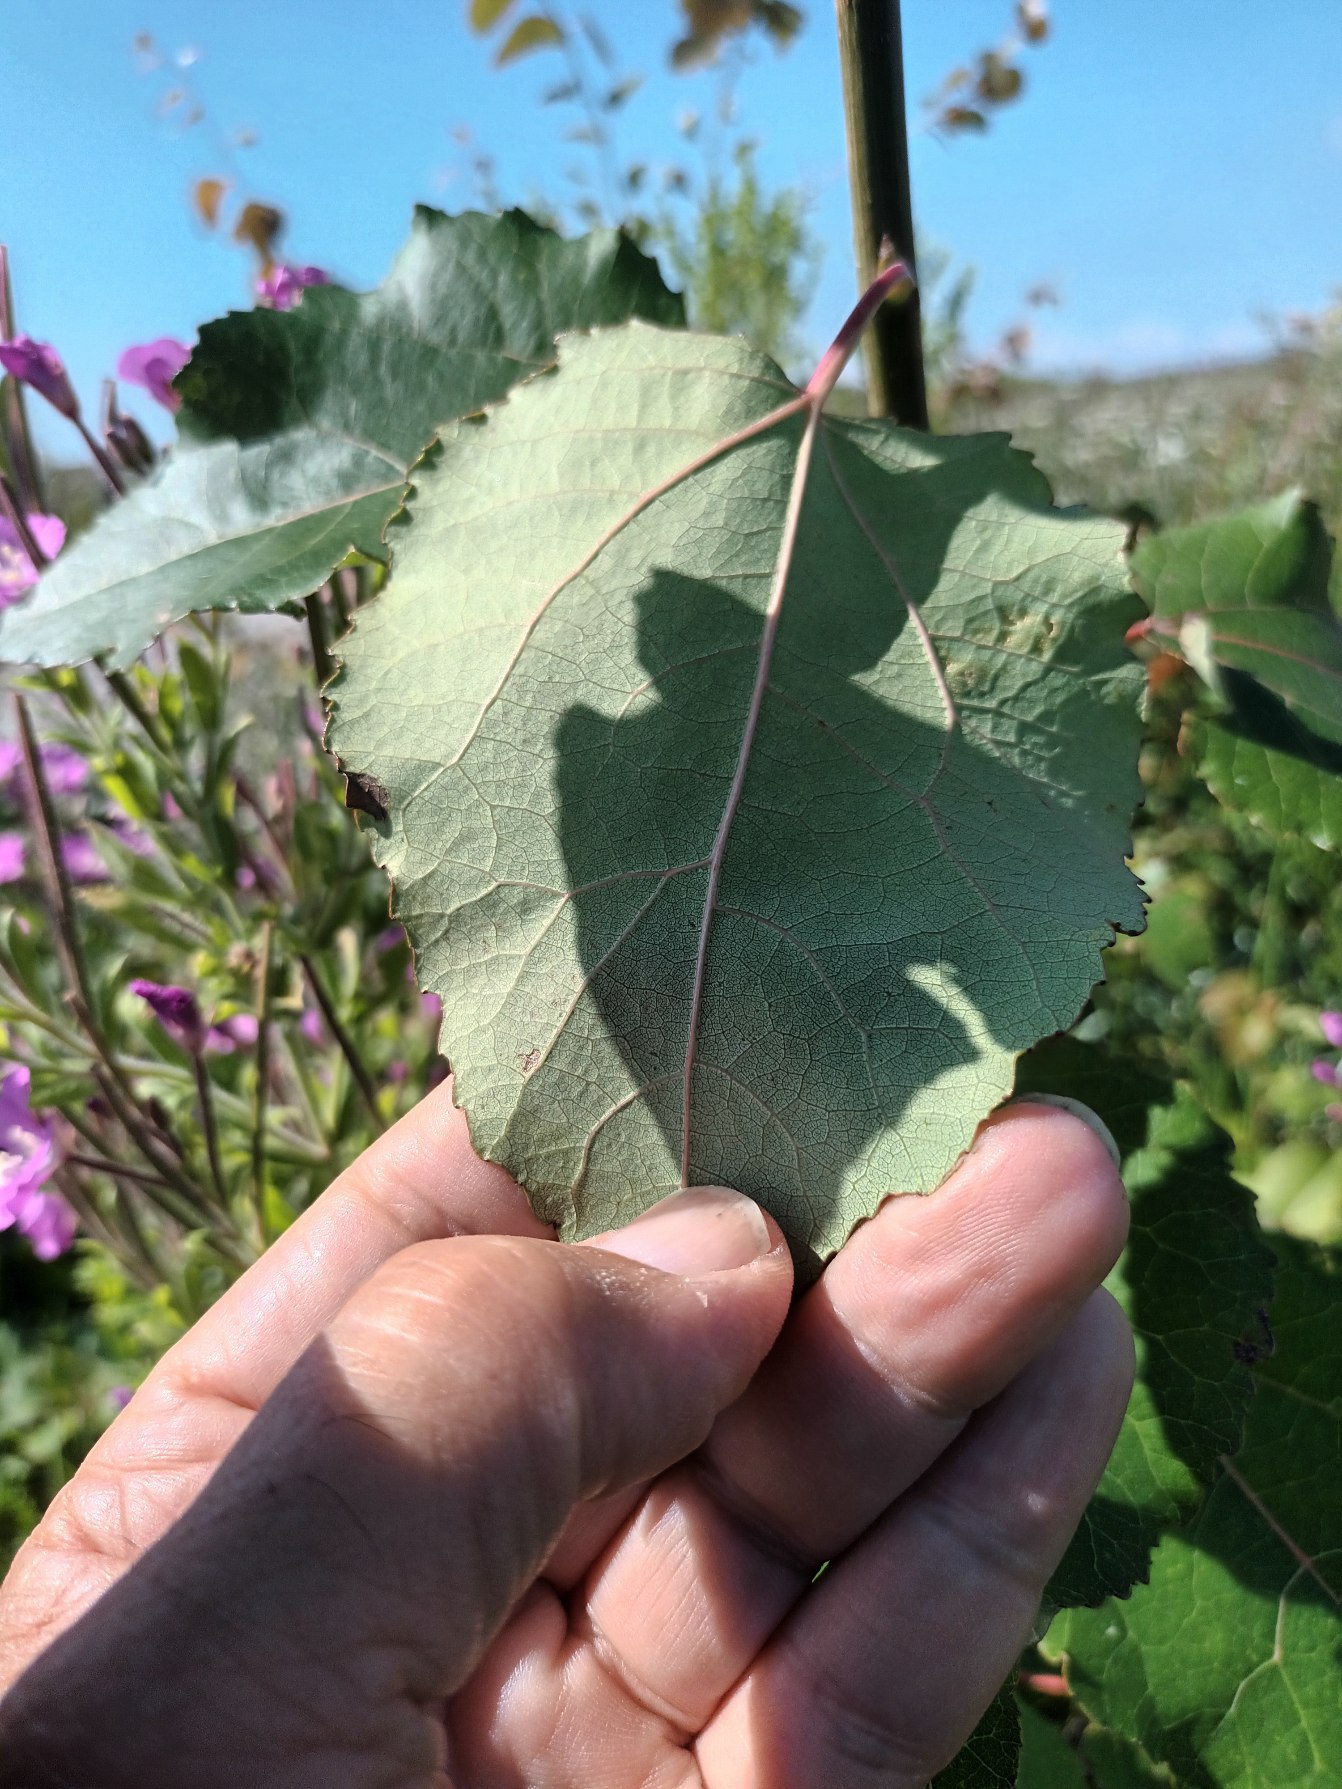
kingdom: Plantae
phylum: Tracheophyta
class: Magnoliopsida
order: Malpighiales
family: Salicaceae
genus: Populus
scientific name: Populus jackii
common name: Ontarisk poppel
